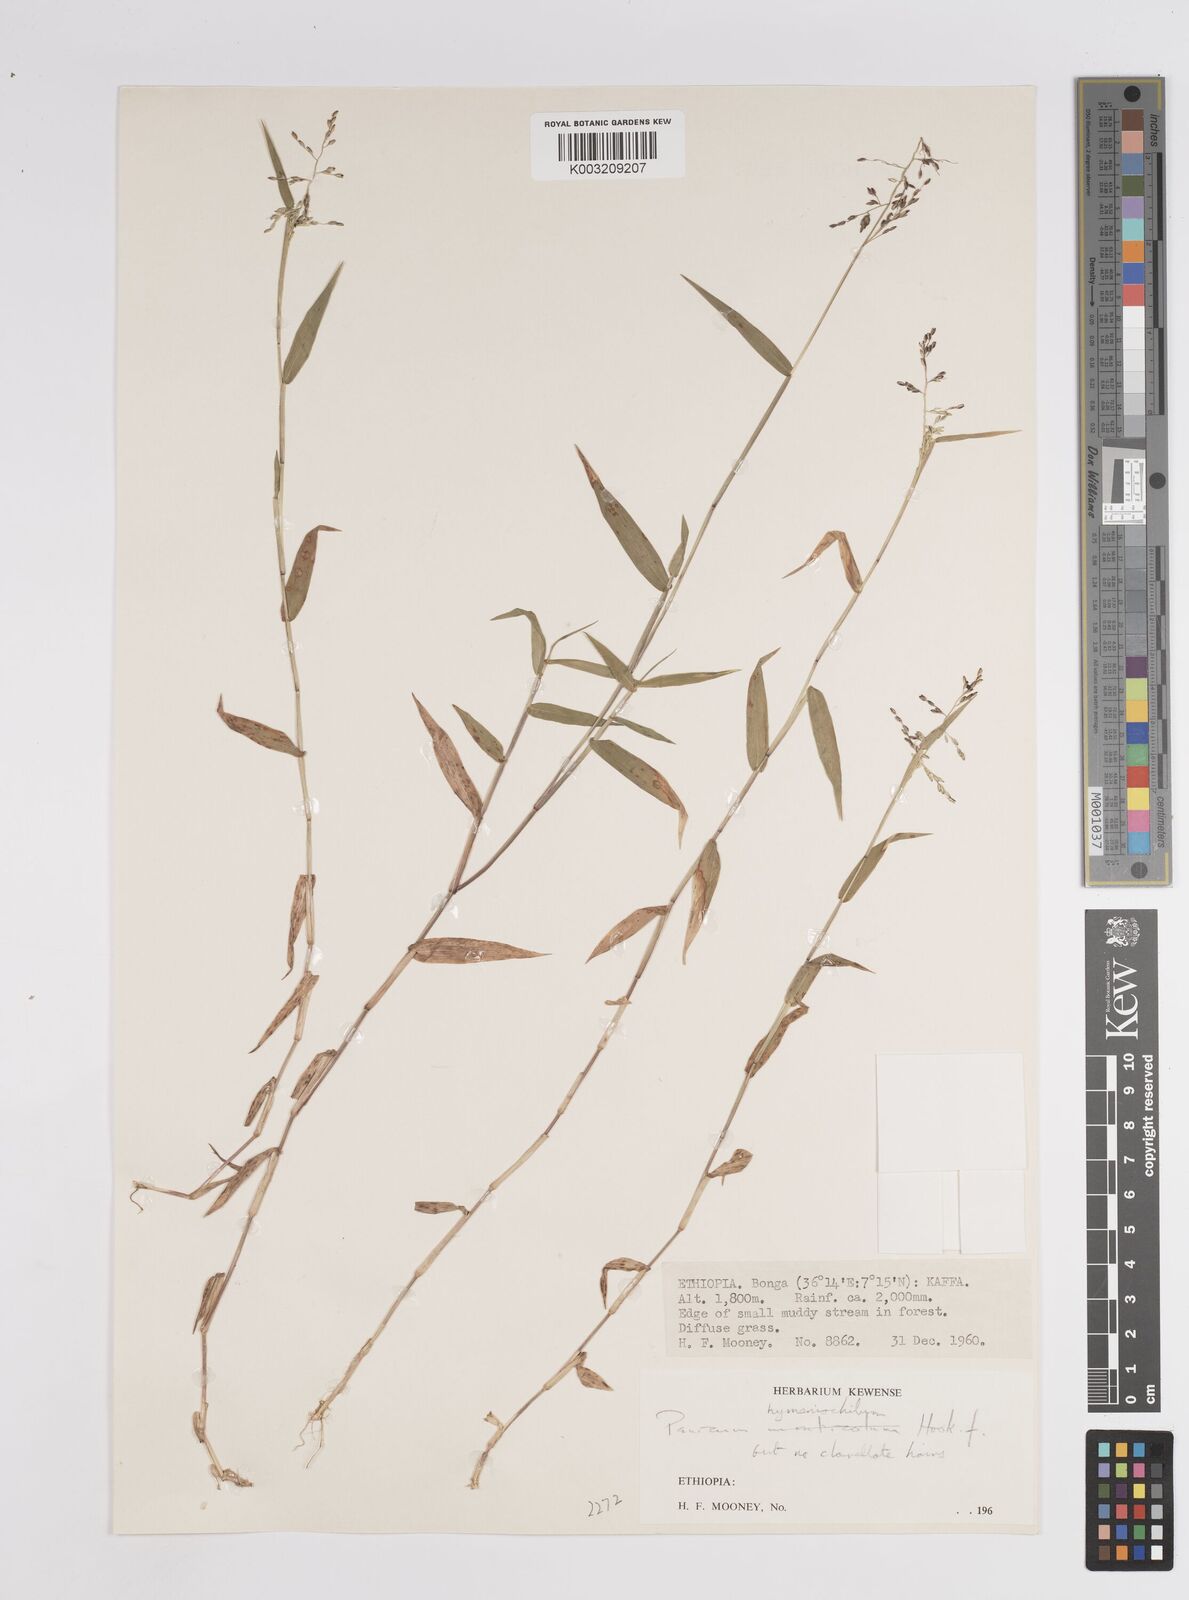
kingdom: Plantae
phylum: Tracheophyta
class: Liliopsida
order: Poales
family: Poaceae
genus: Adenochloa
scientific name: Adenochloa hymeniochila
